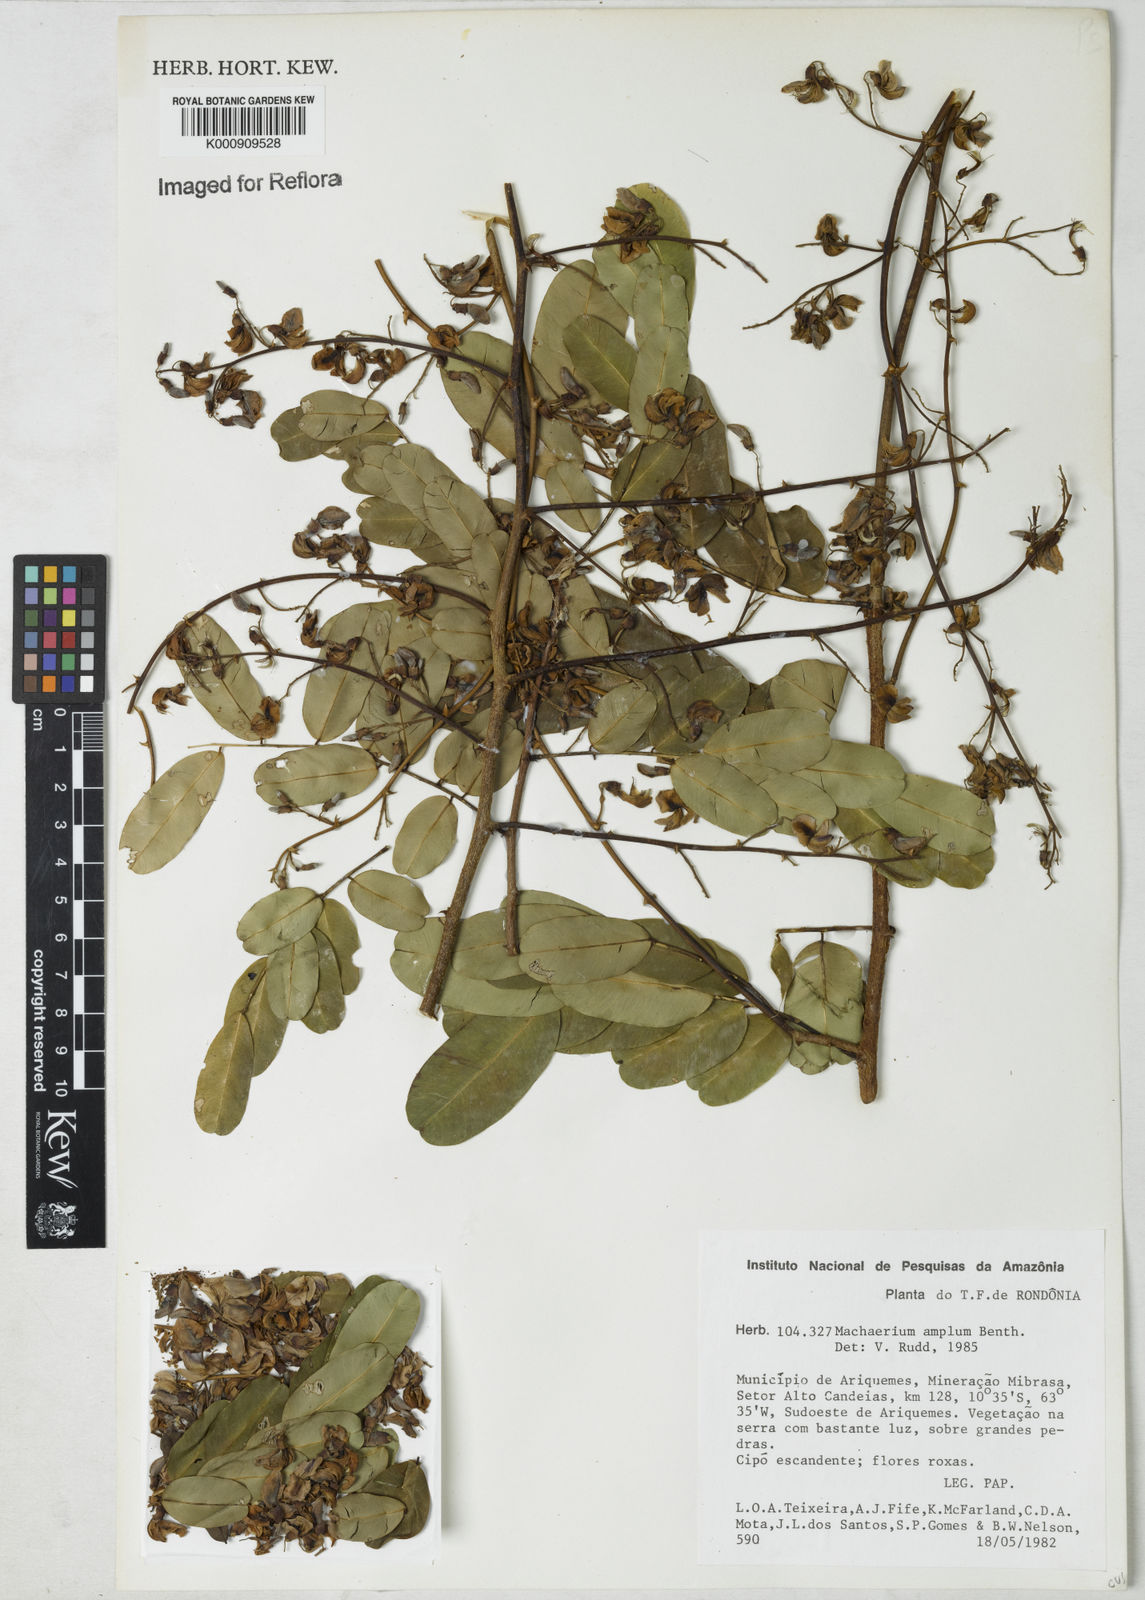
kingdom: Plantae
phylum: Tracheophyta
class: Magnoliopsida
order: Fabales
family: Fabaceae
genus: Machaerium
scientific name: Machaerium amplum
